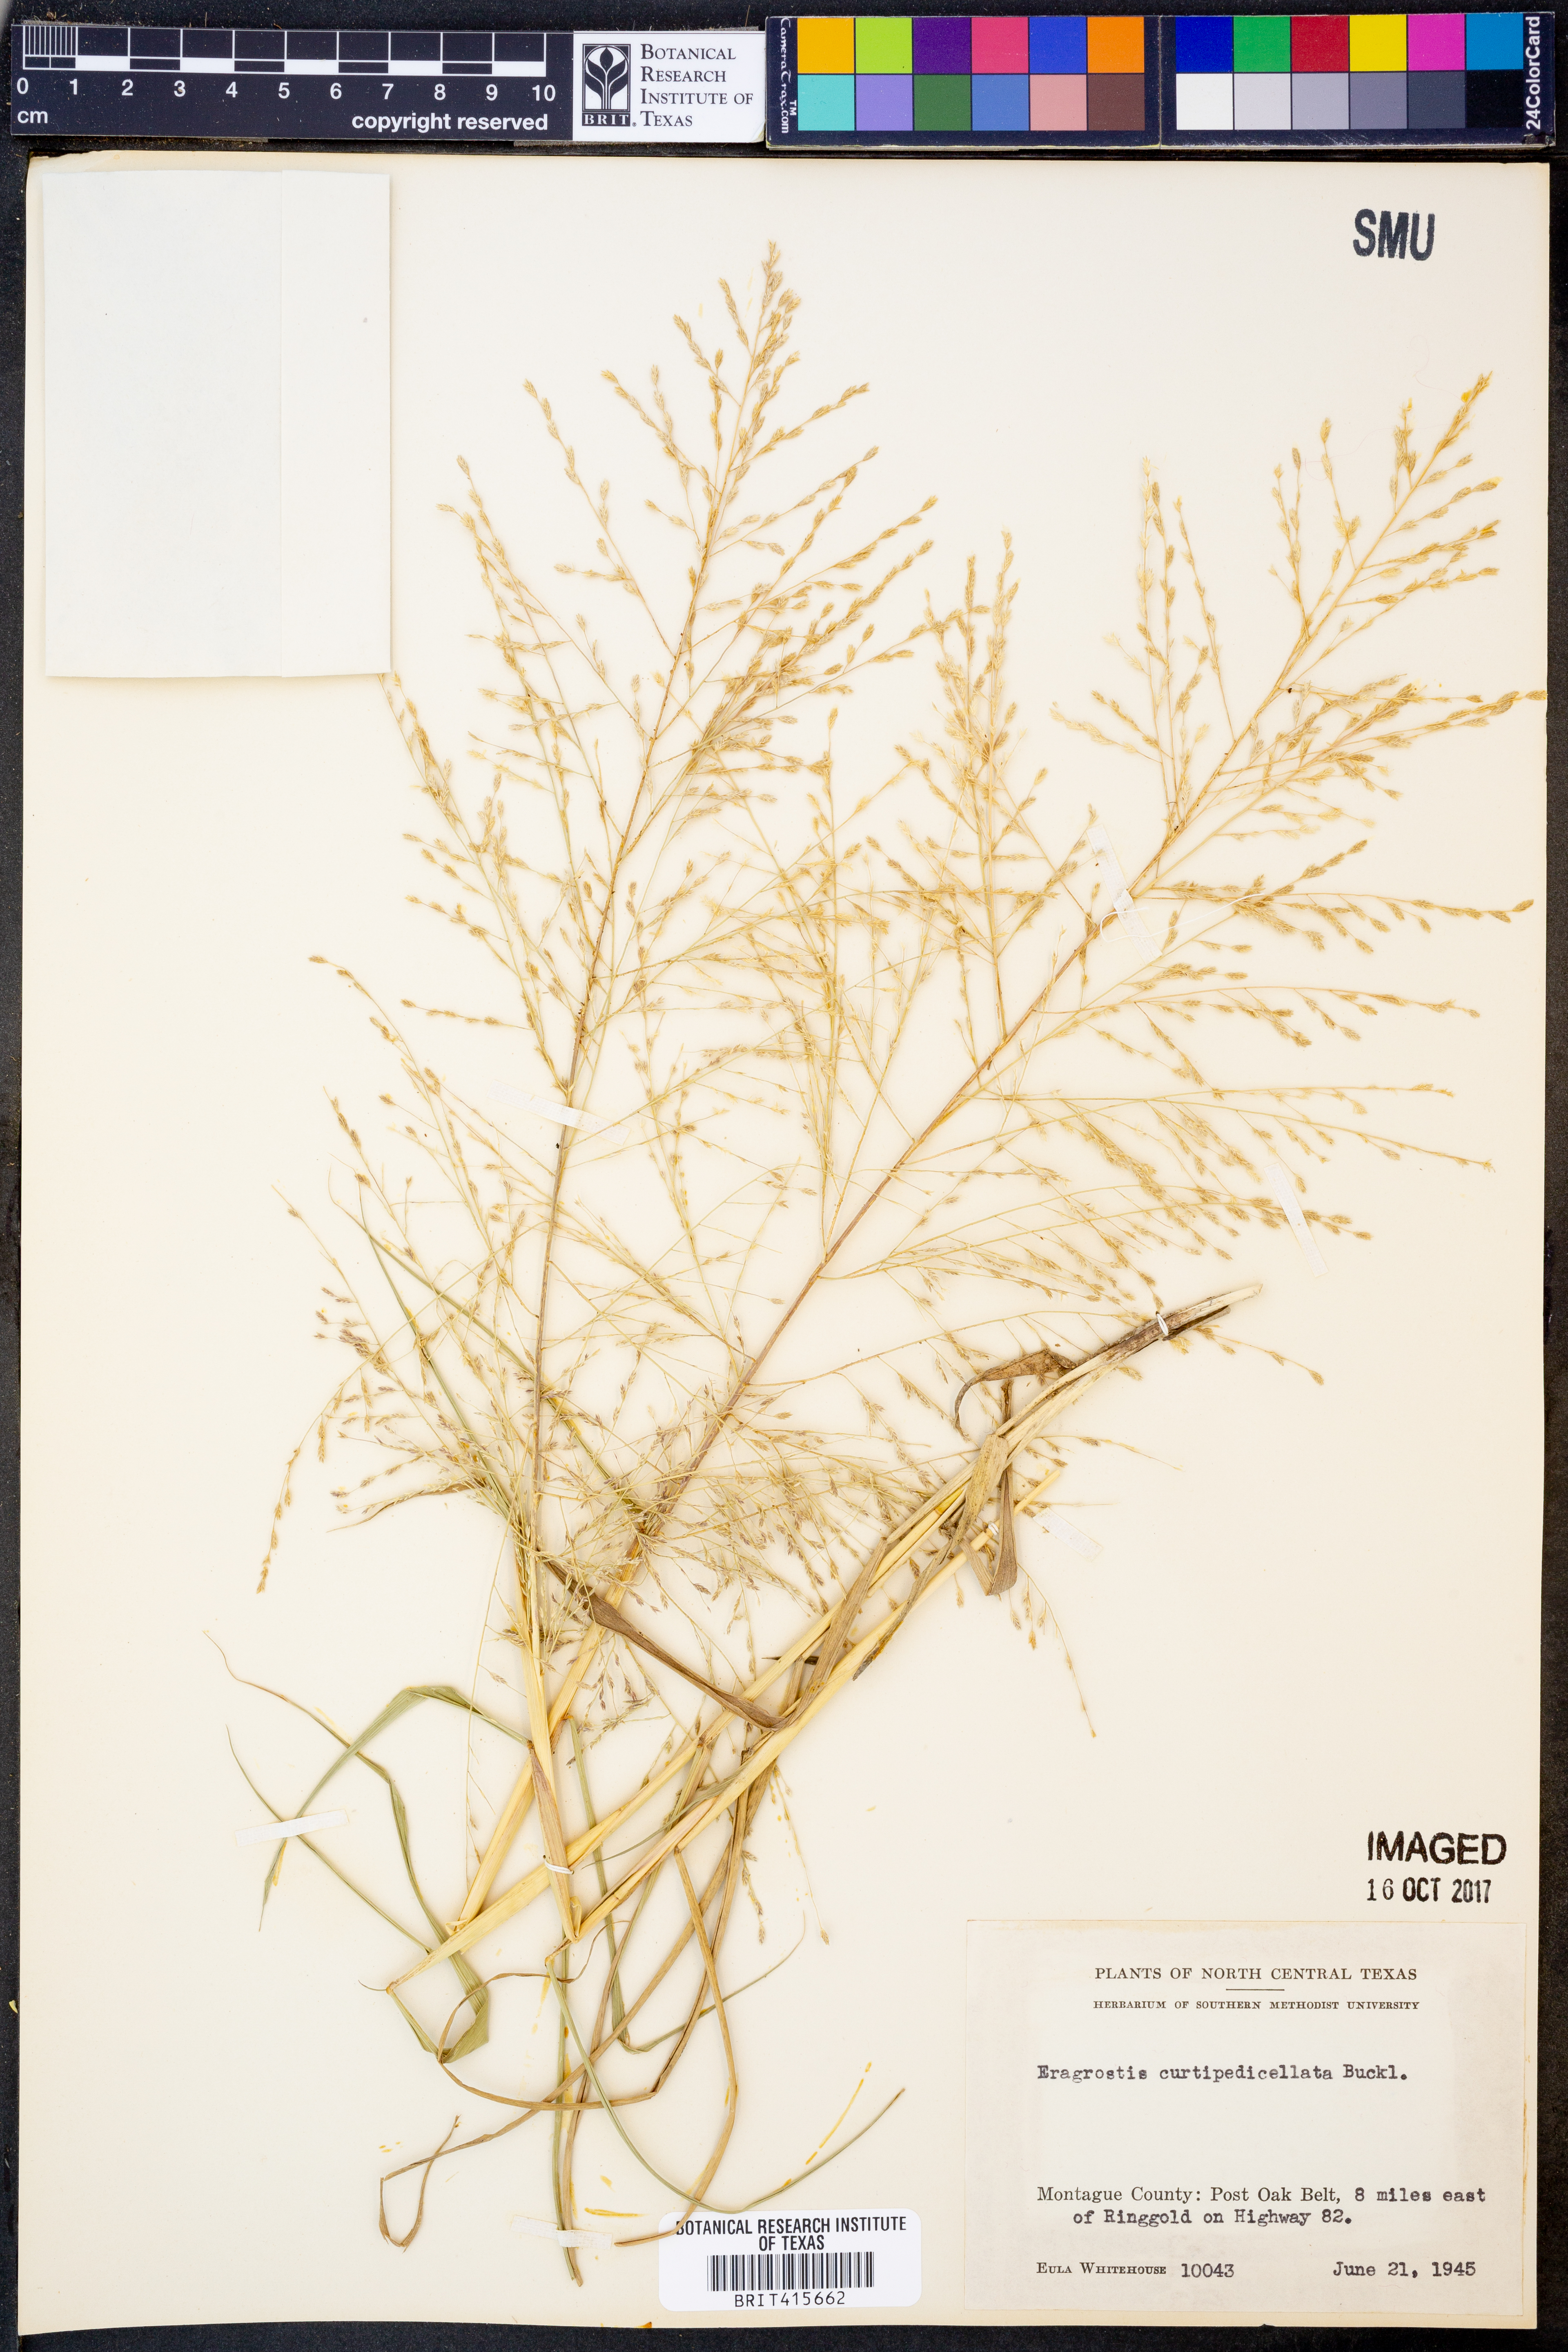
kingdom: Plantae
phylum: Tracheophyta
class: Liliopsida
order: Poales
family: Poaceae
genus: Eragrostis
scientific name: Eragrostis curtipedicellata
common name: Gummy love grass
